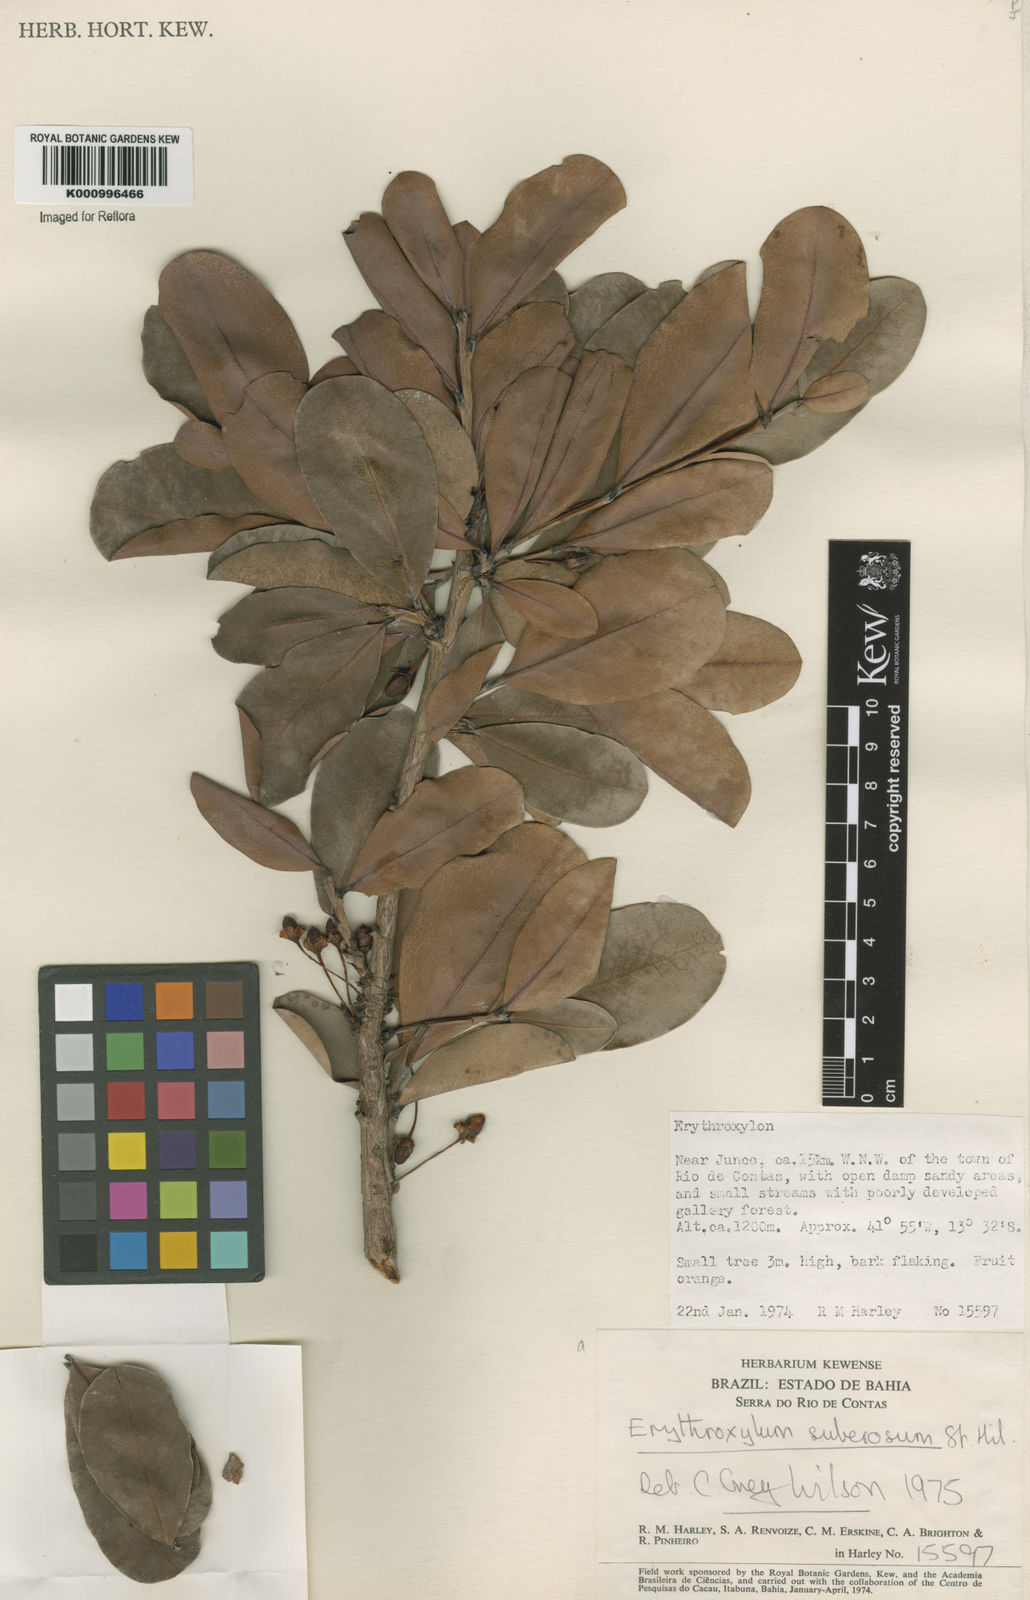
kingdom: Plantae
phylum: Tracheophyta
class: Magnoliopsida
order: Malpighiales
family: Erythroxylaceae
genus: Erythroxylum
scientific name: Erythroxylum suberosum
